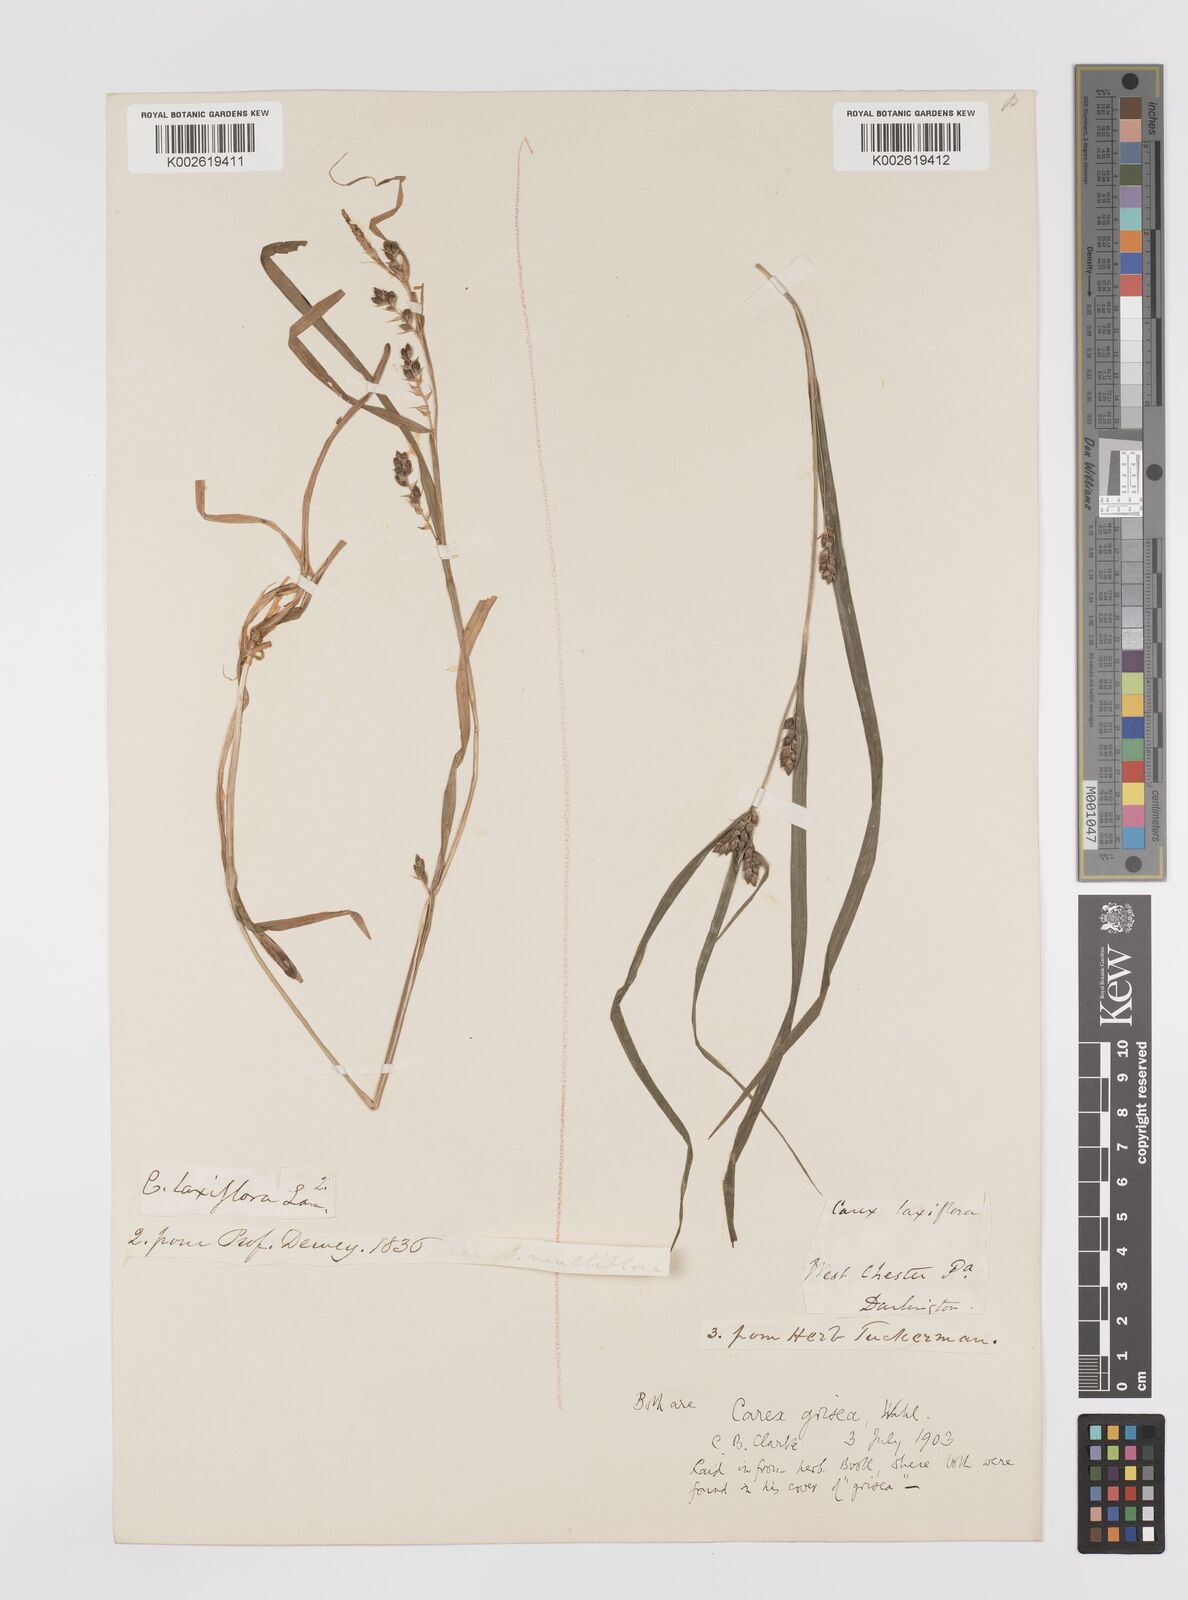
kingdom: Plantae
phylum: Tracheophyta
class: Liliopsida
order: Poales
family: Cyperaceae
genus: Carex
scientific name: Carex grisea
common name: Eastern narrow-leaved sedge
